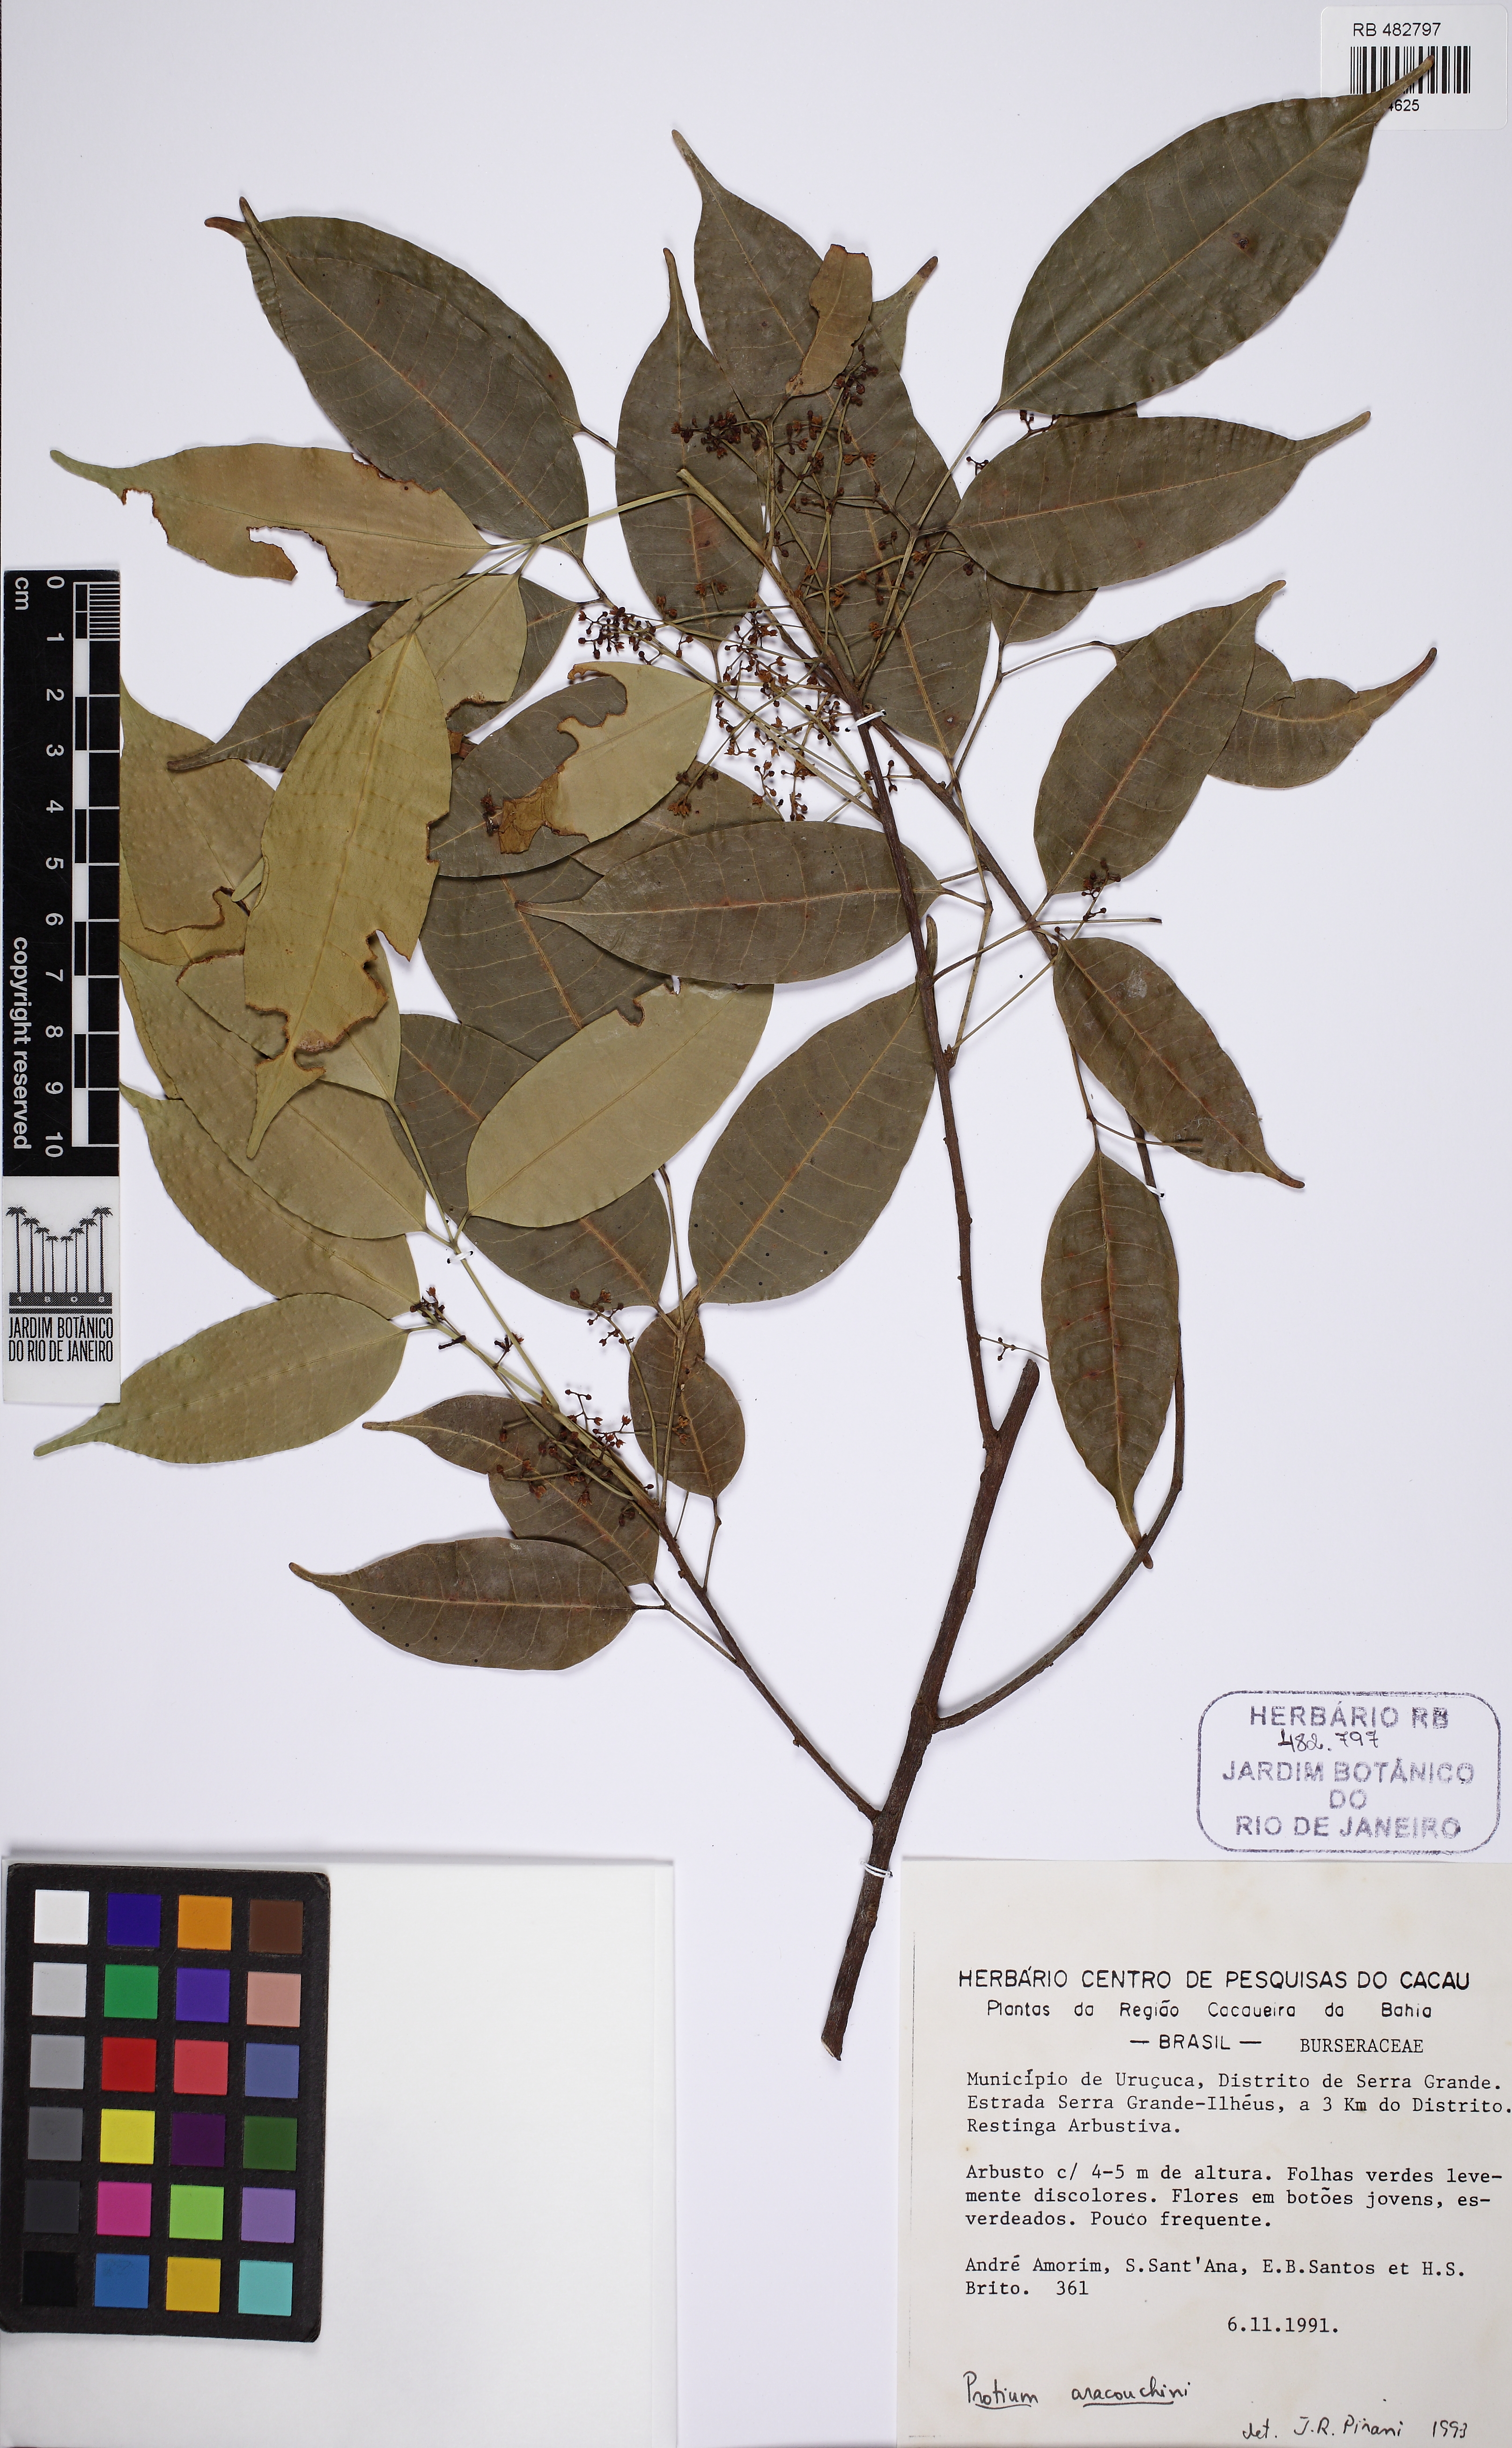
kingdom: Plantae
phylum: Tracheophyta
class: Magnoliopsida
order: Sapindales
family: Burseraceae
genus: Protium
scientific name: Protium aracouchini
